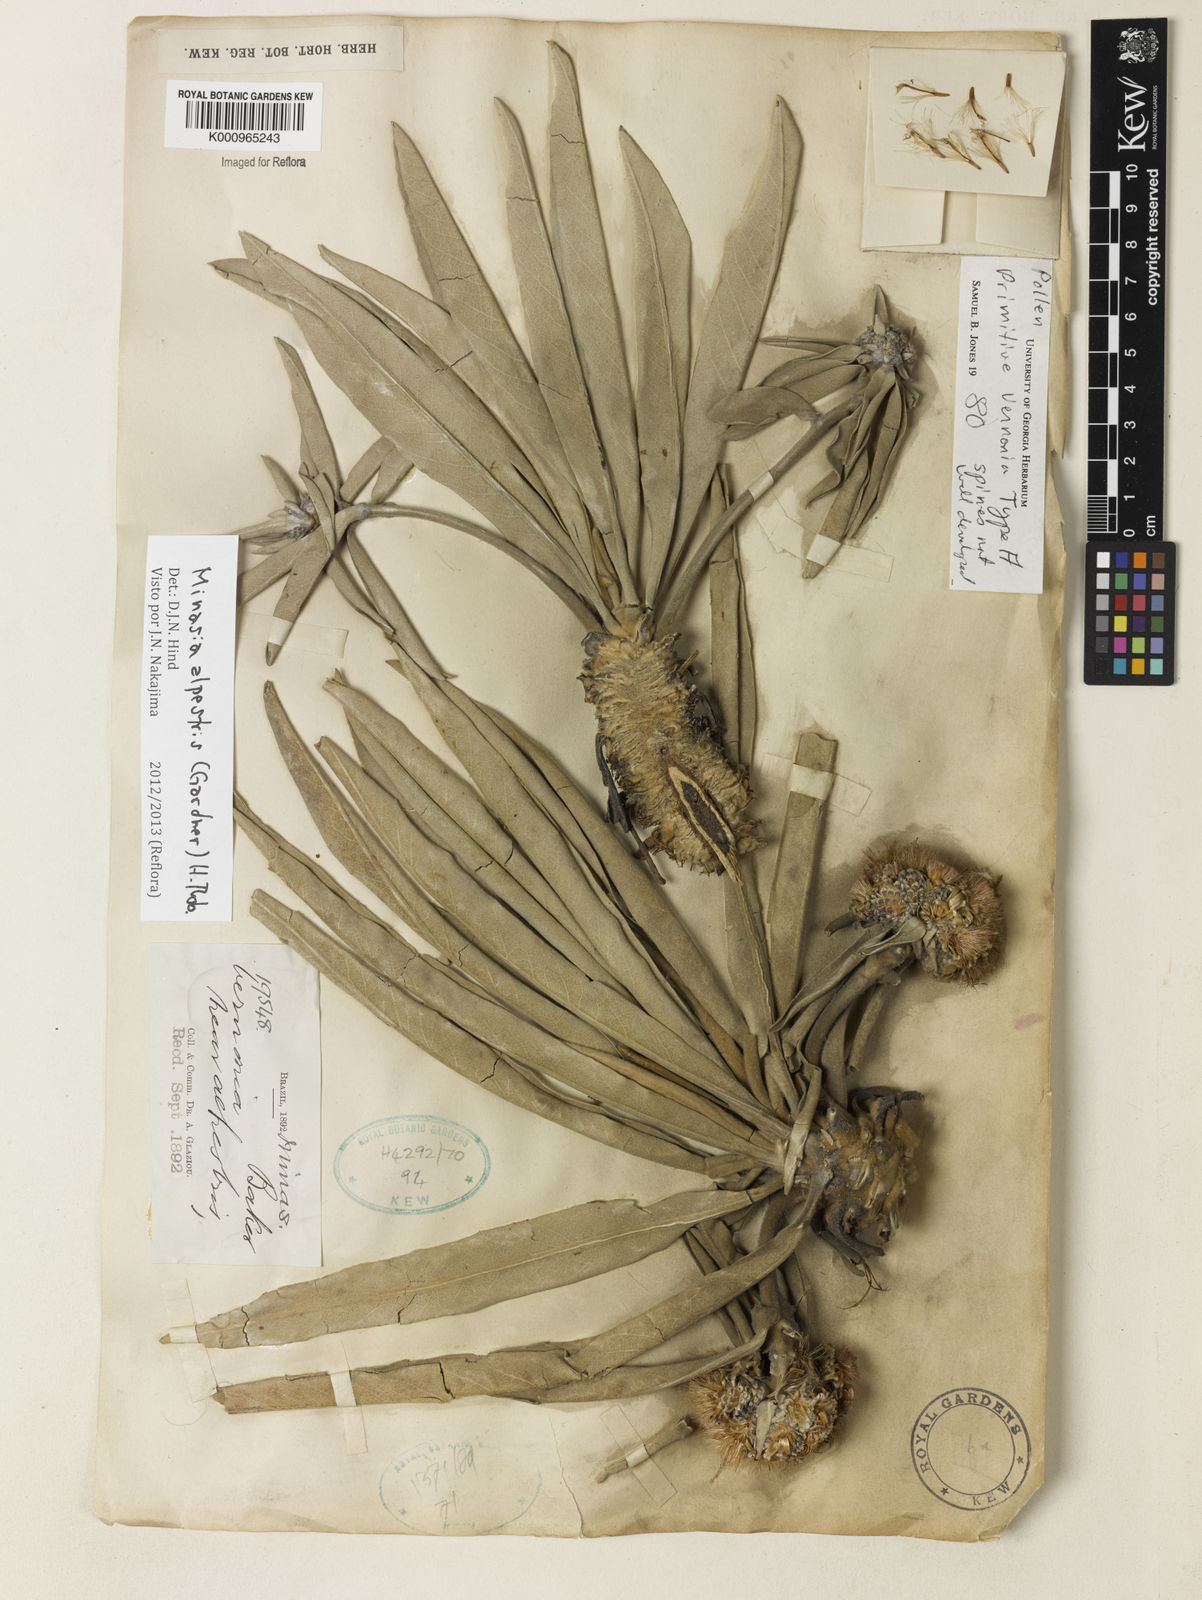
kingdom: Plantae
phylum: Tracheophyta
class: Magnoliopsida
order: Asterales
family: Asteraceae
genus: Minasia
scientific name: Minasia alpestris
